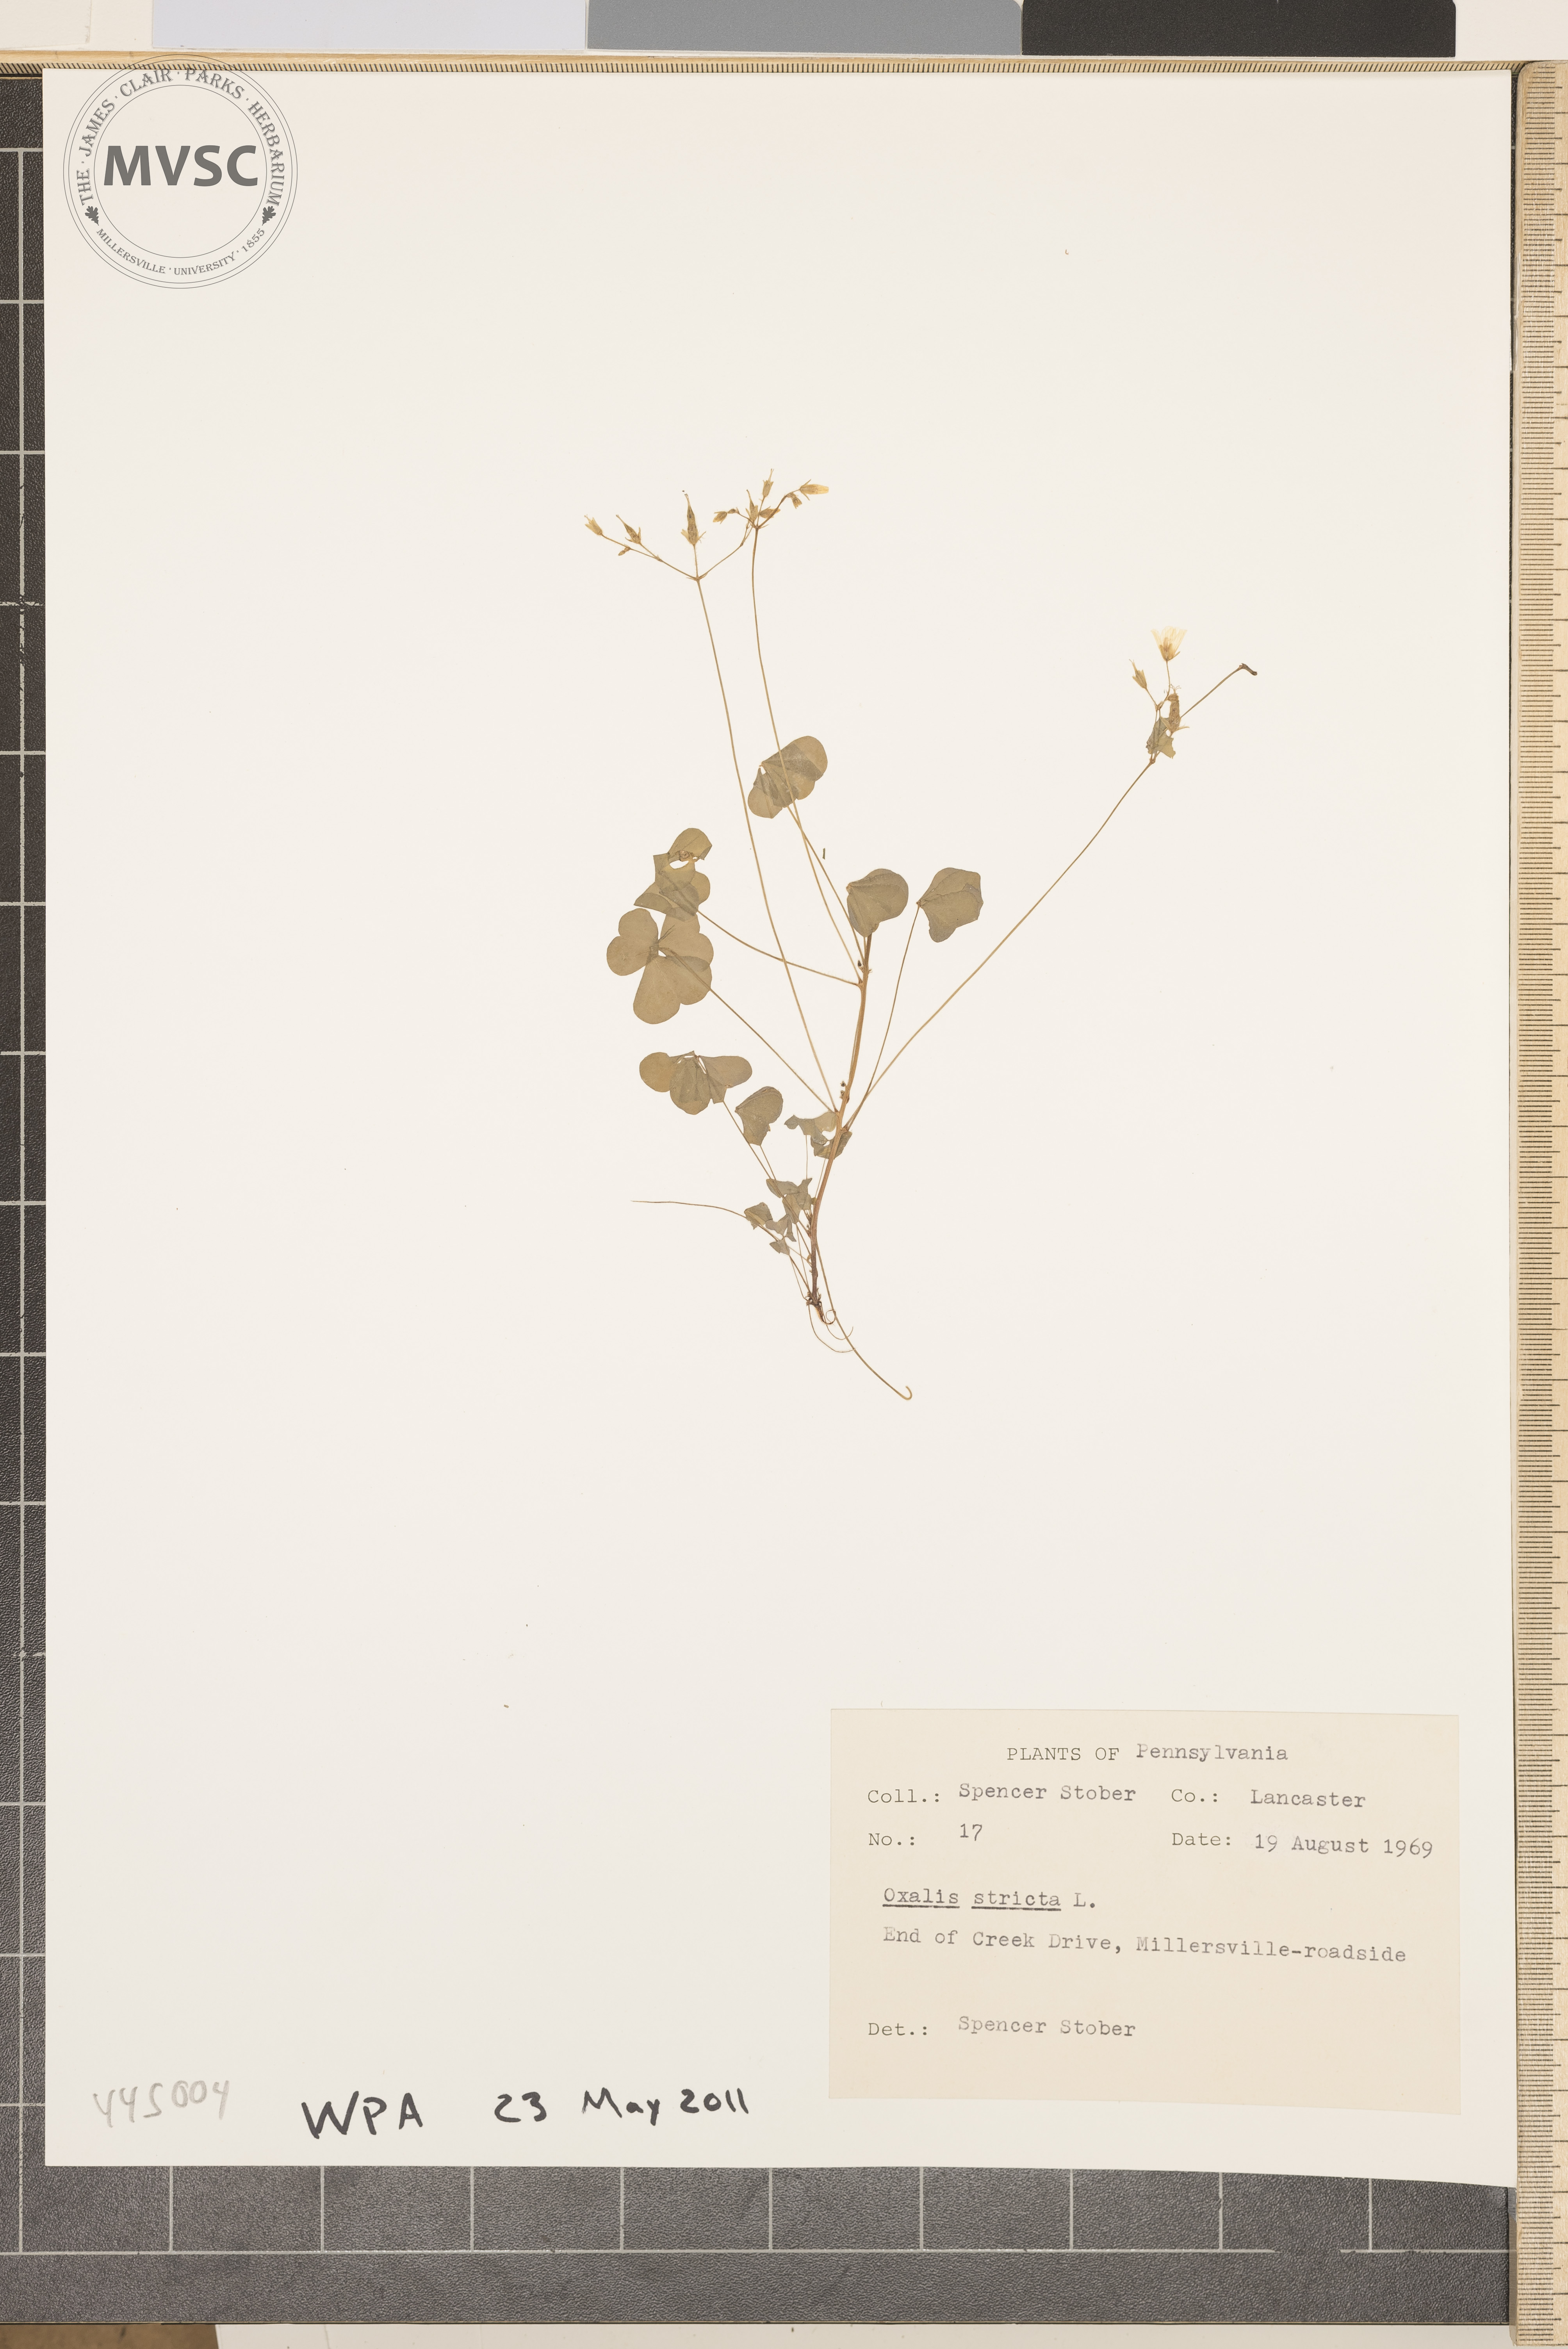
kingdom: Plantae
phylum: Tracheophyta
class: Magnoliopsida
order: Oxalidales
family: Oxalidaceae
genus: Oxalis
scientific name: Oxalis stricta
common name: Common yellow wood-sorrel
